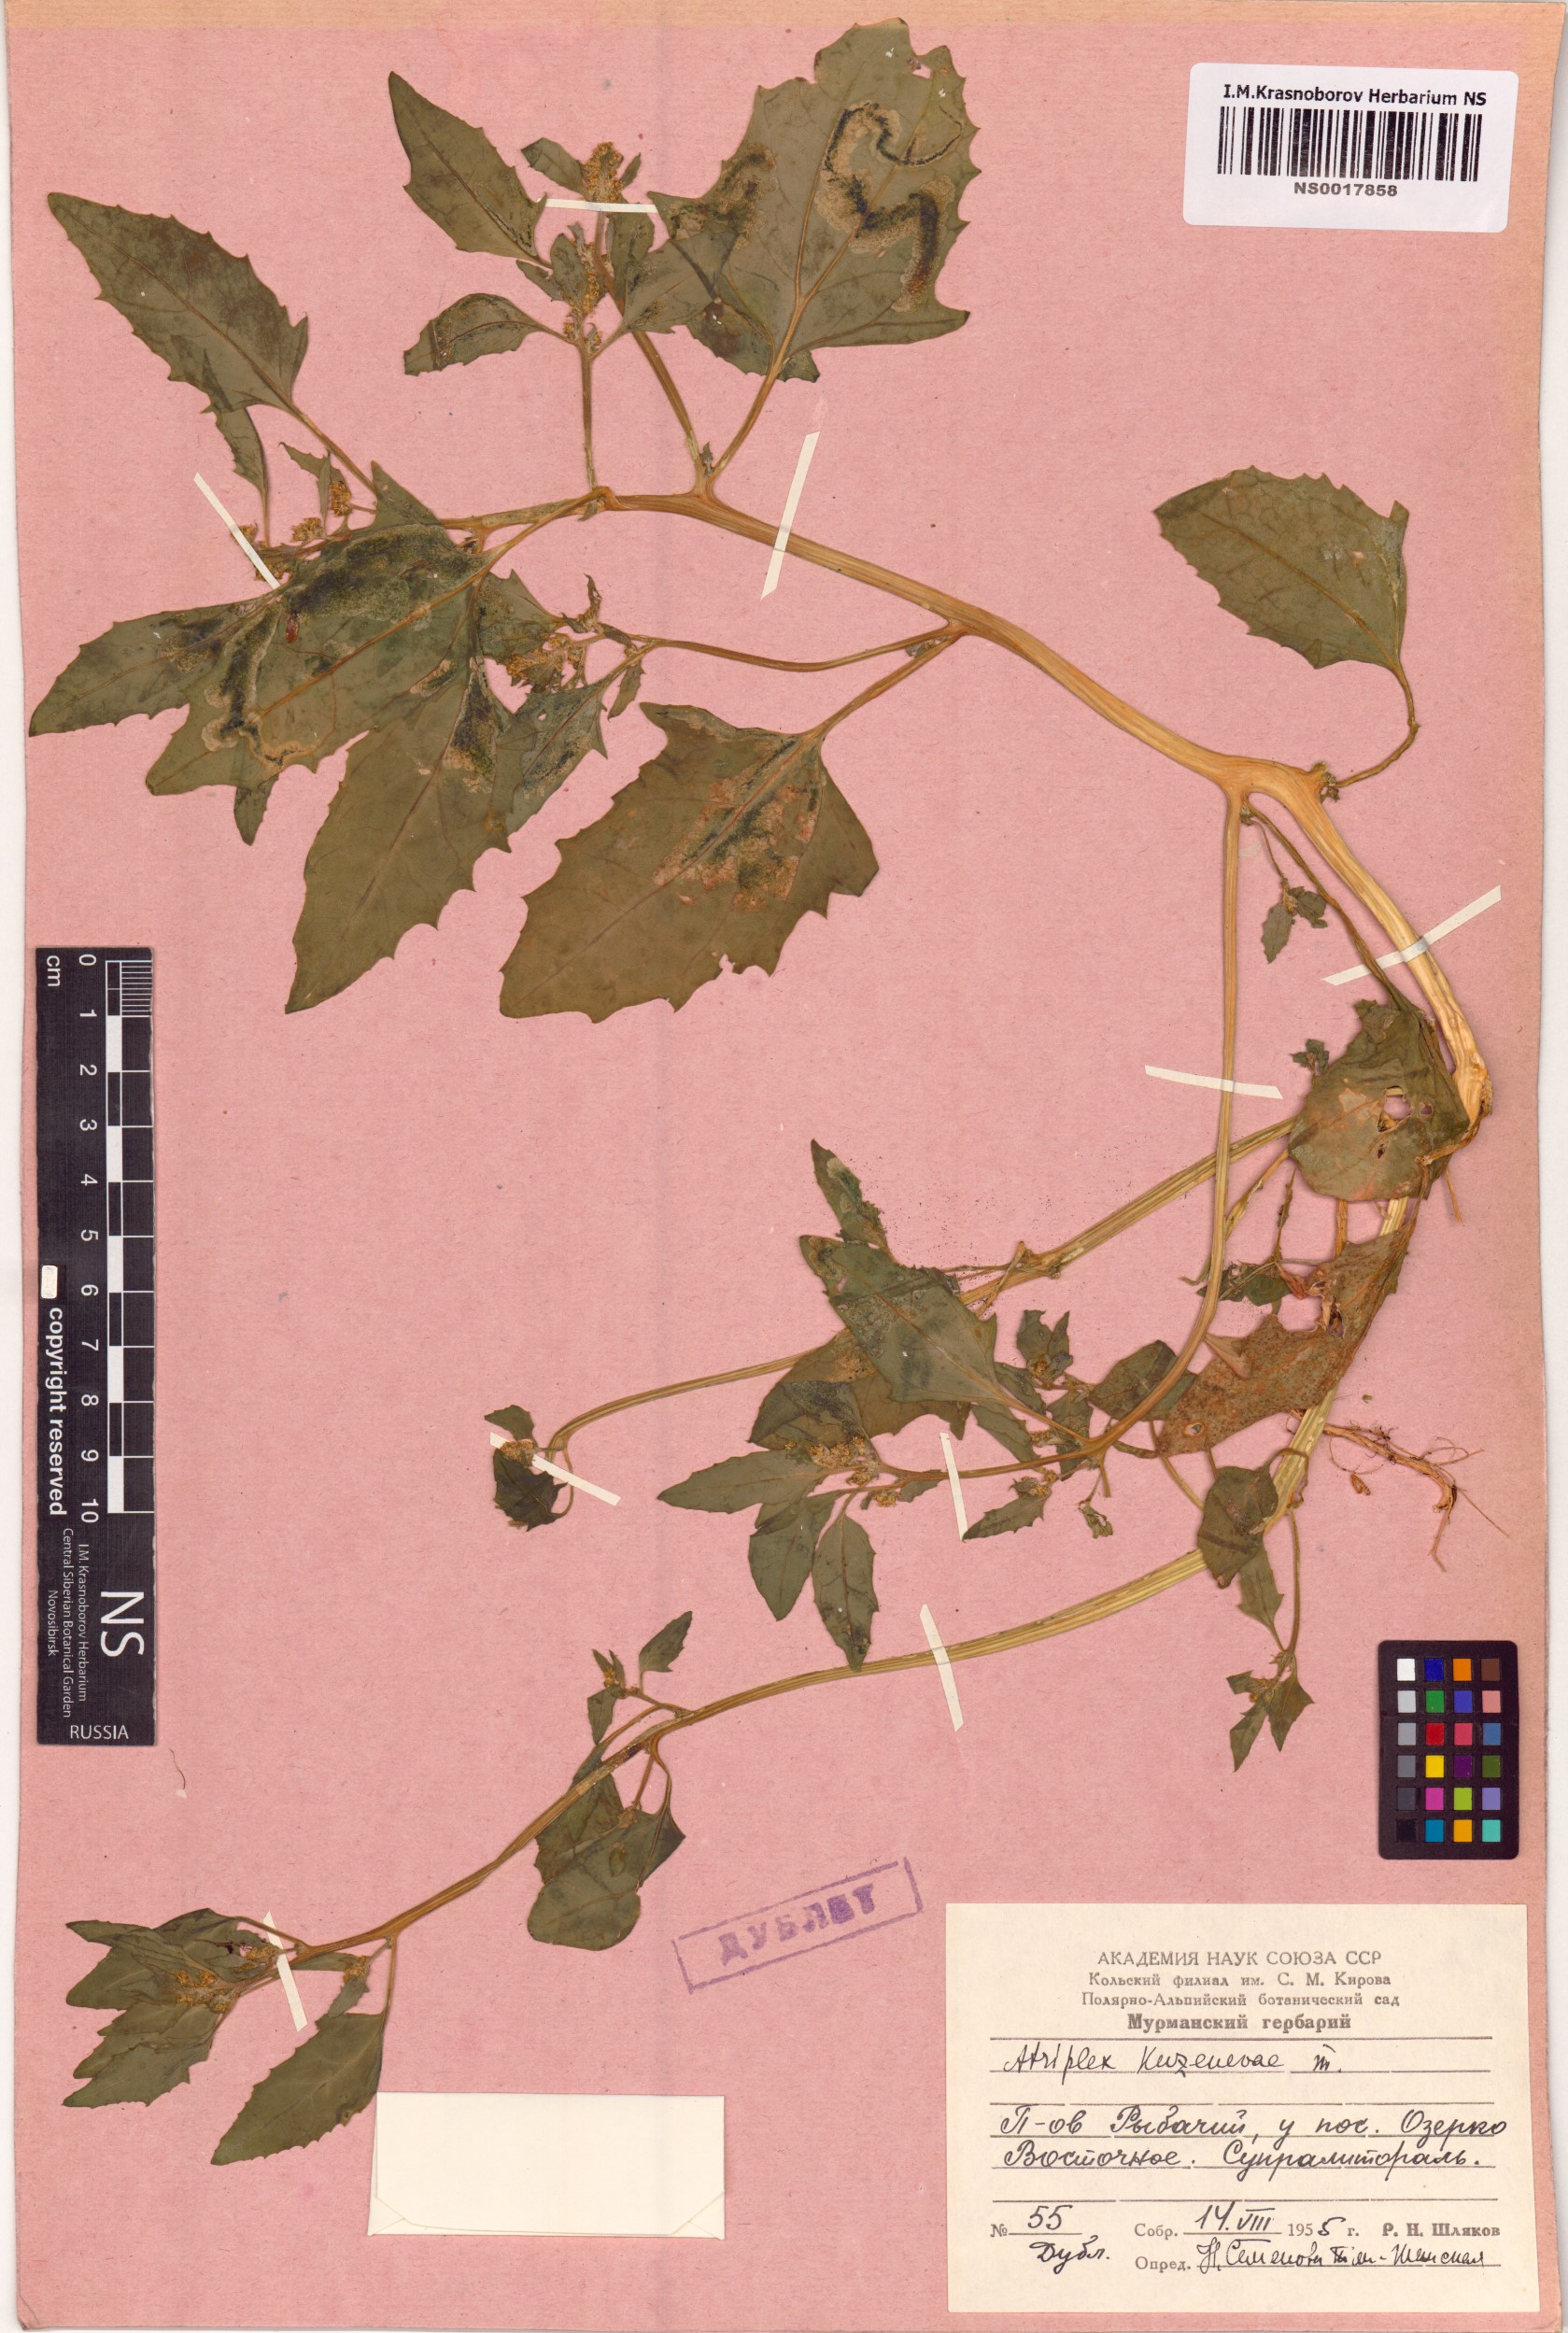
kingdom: Plantae
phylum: Tracheophyta
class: Magnoliopsida
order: Caryophyllales
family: Amaranthaceae
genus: Atriplex
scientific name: Atriplex nudicaulis
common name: Baltic orache
